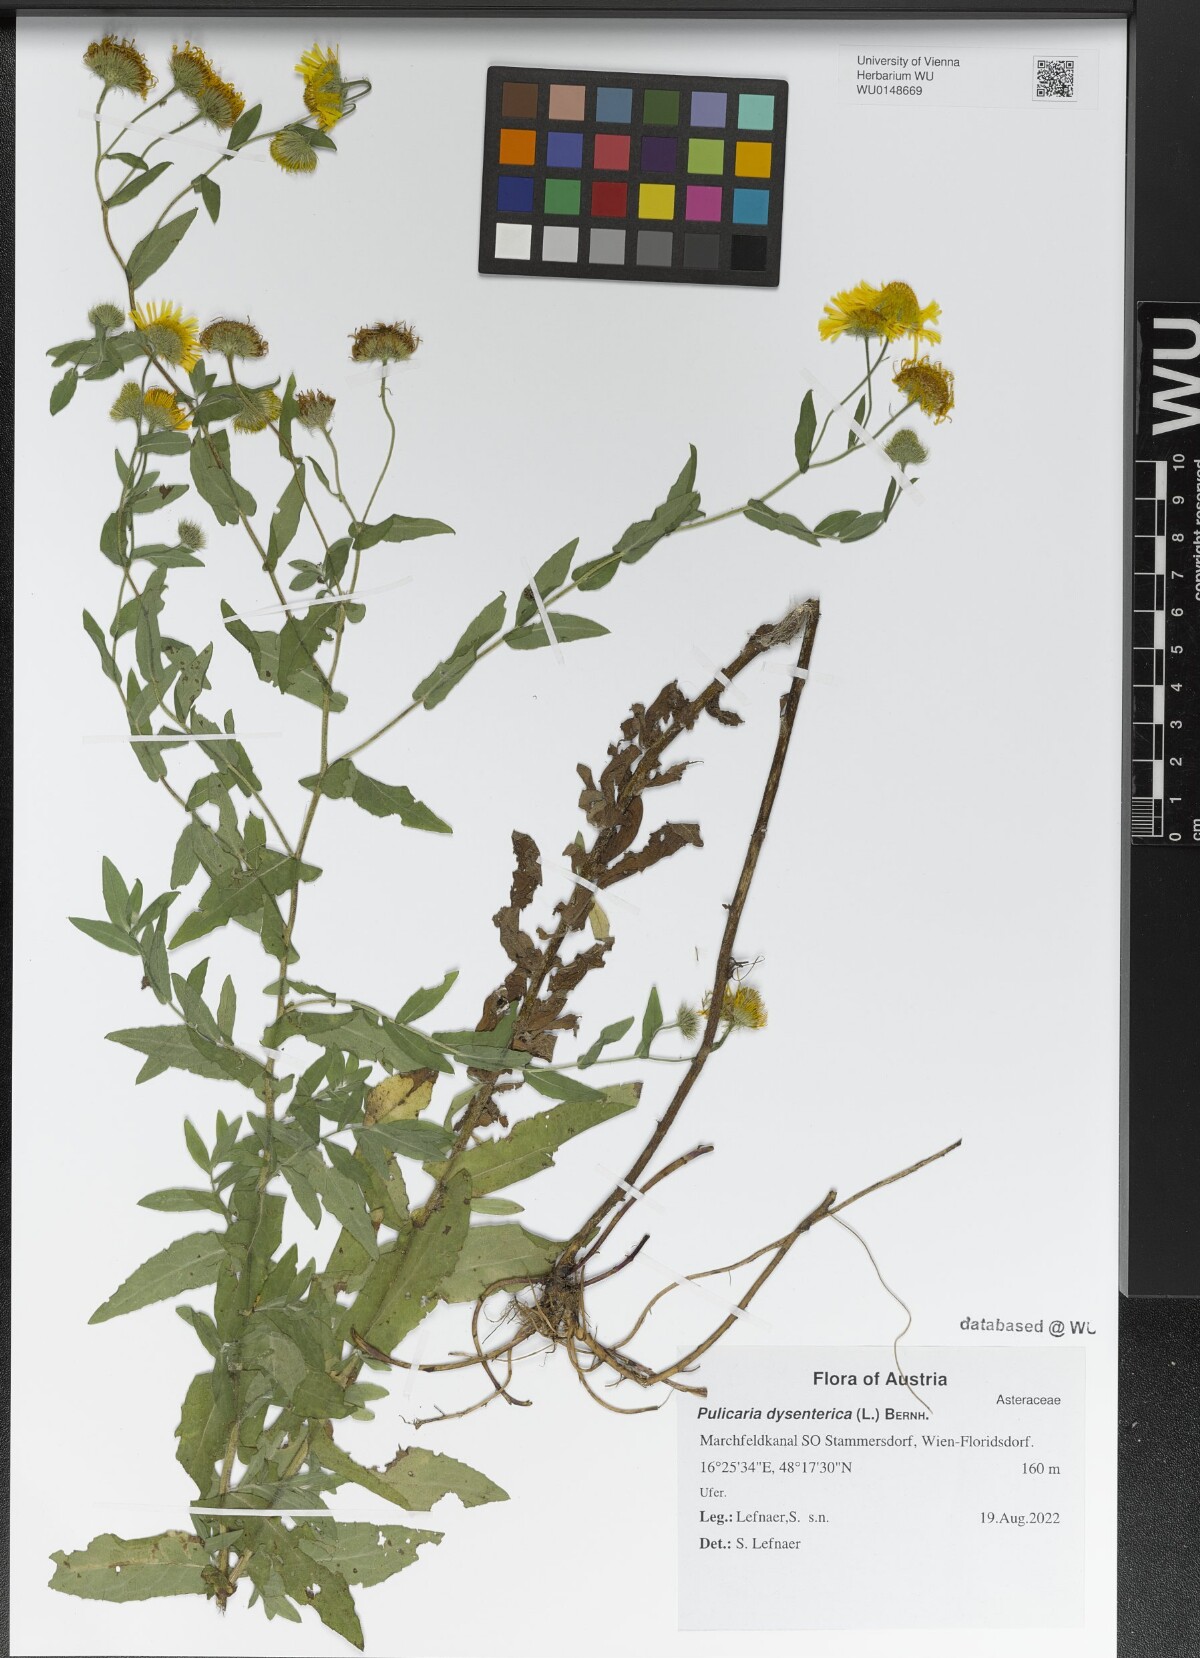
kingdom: Plantae
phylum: Tracheophyta
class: Magnoliopsida
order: Asterales
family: Asteraceae
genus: Pulicaria
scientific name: Pulicaria dysenterica
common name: Common fleabane
